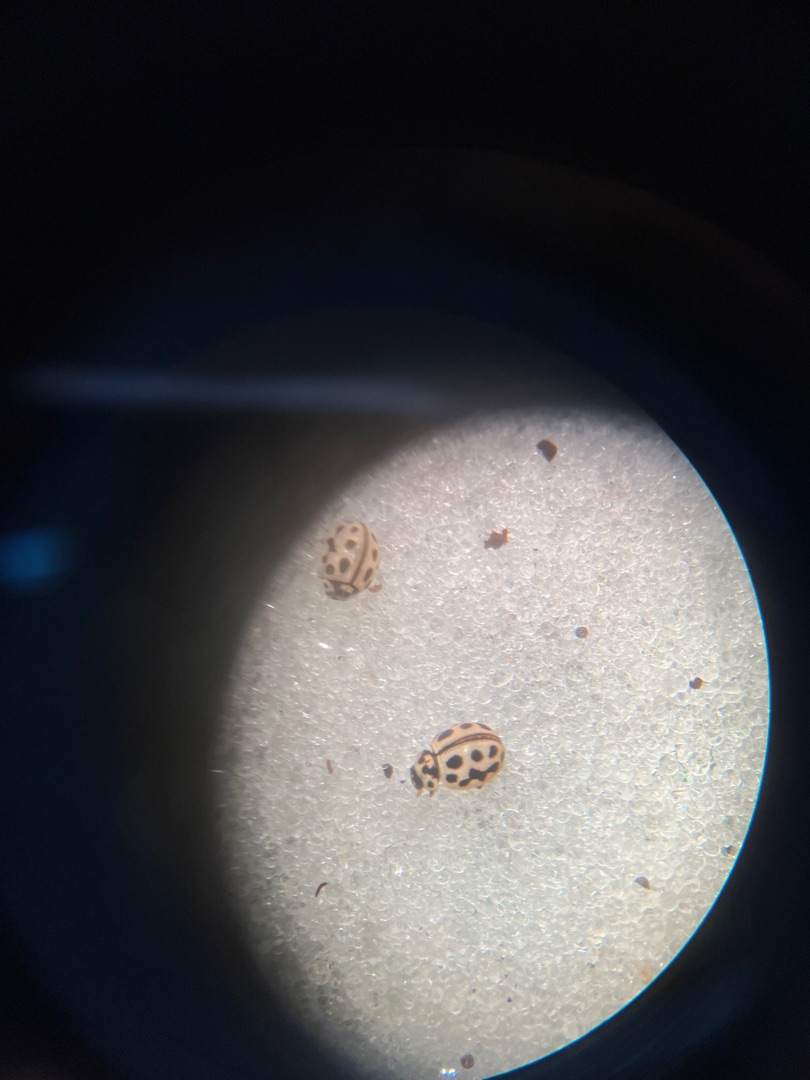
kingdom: Animalia
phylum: Arthropoda
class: Insecta
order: Coleoptera
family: Coccinellidae
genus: Tytthaspis
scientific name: Tytthaspis sedecimpunctata
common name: Sekstenprikket mariehøne
